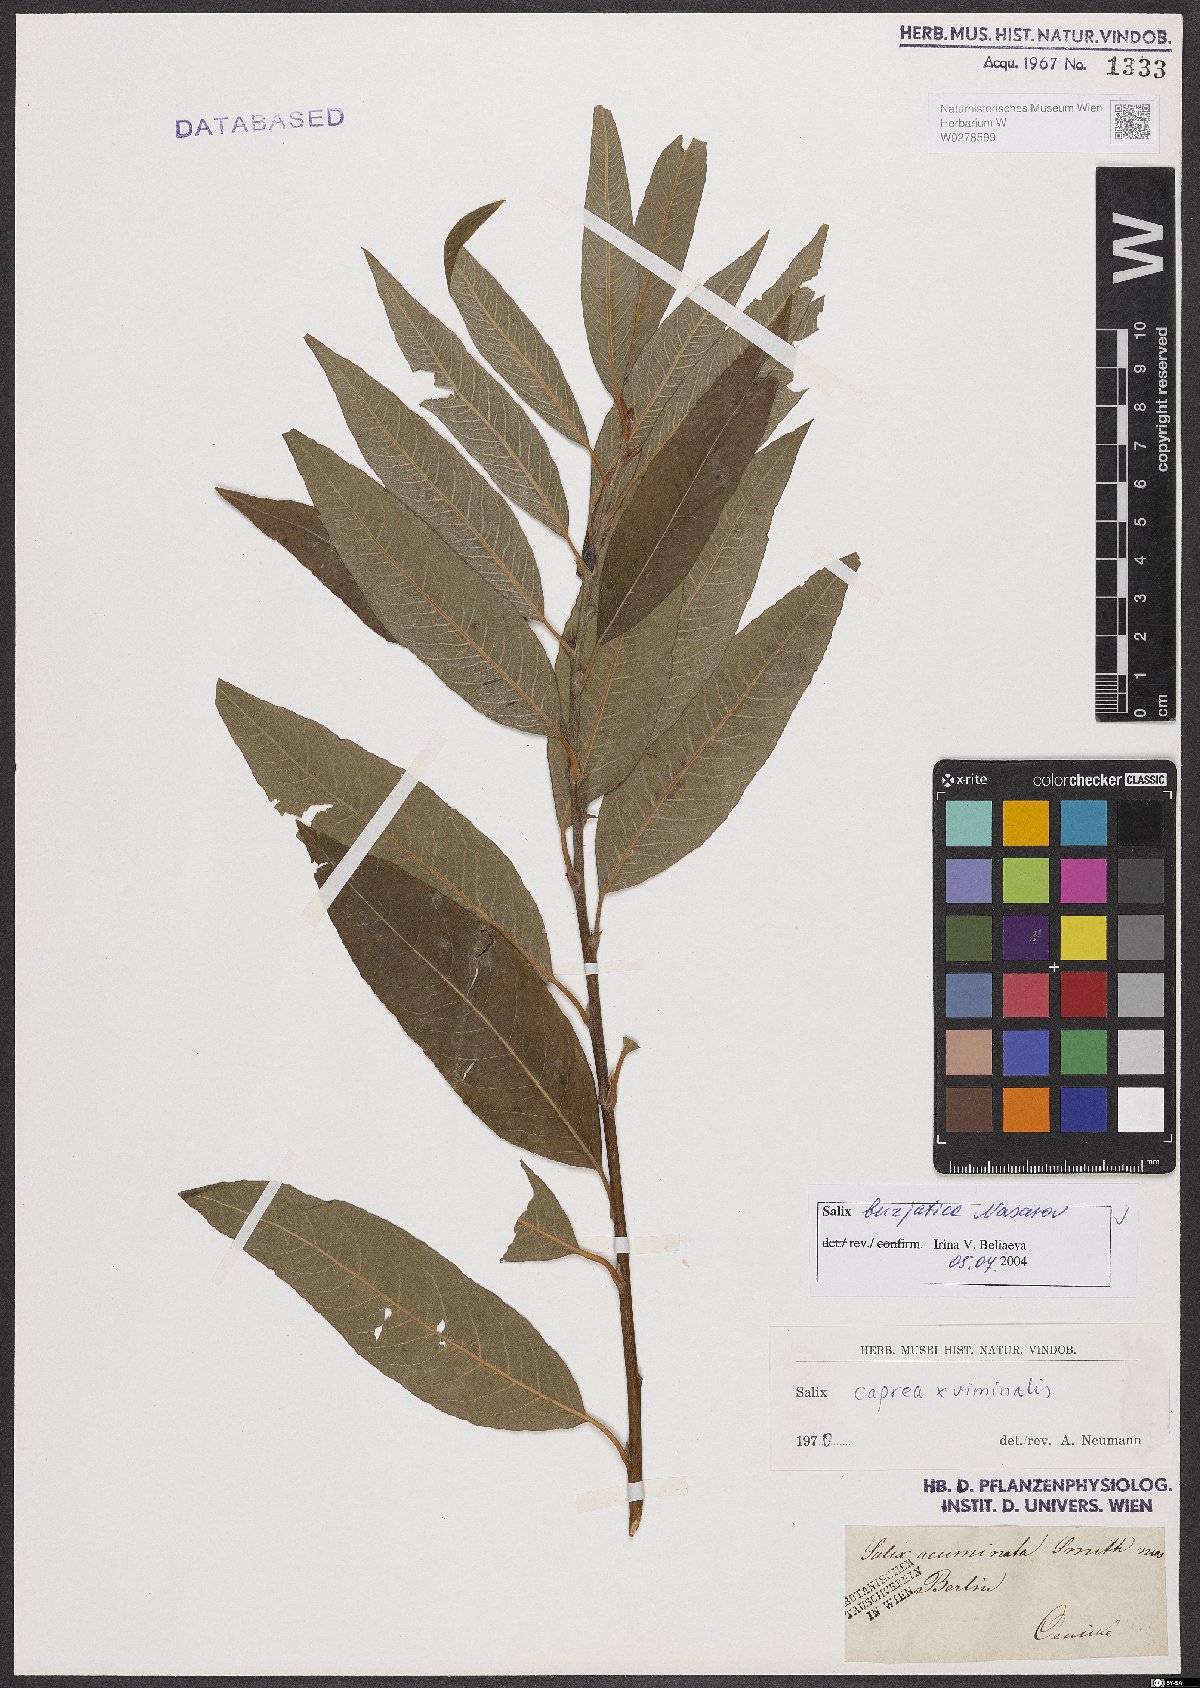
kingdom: Plantae
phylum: Tracheophyta
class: Magnoliopsida
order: Malpighiales
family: Salicaceae
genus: Salix
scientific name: Salix gmelinii
